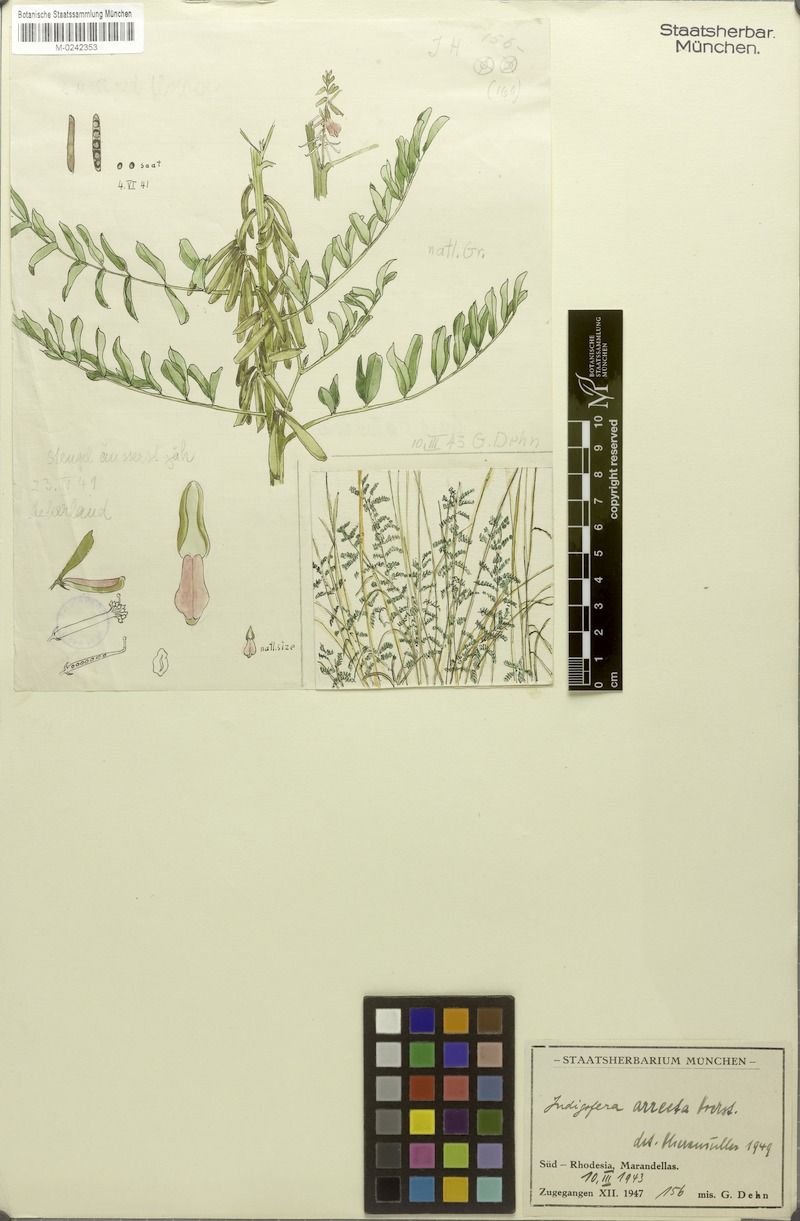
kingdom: Plantae
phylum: Tracheophyta
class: Magnoliopsida
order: Fabales
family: Fabaceae
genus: Indigofera
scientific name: Indigofera arrecta
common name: Bengal indigo
